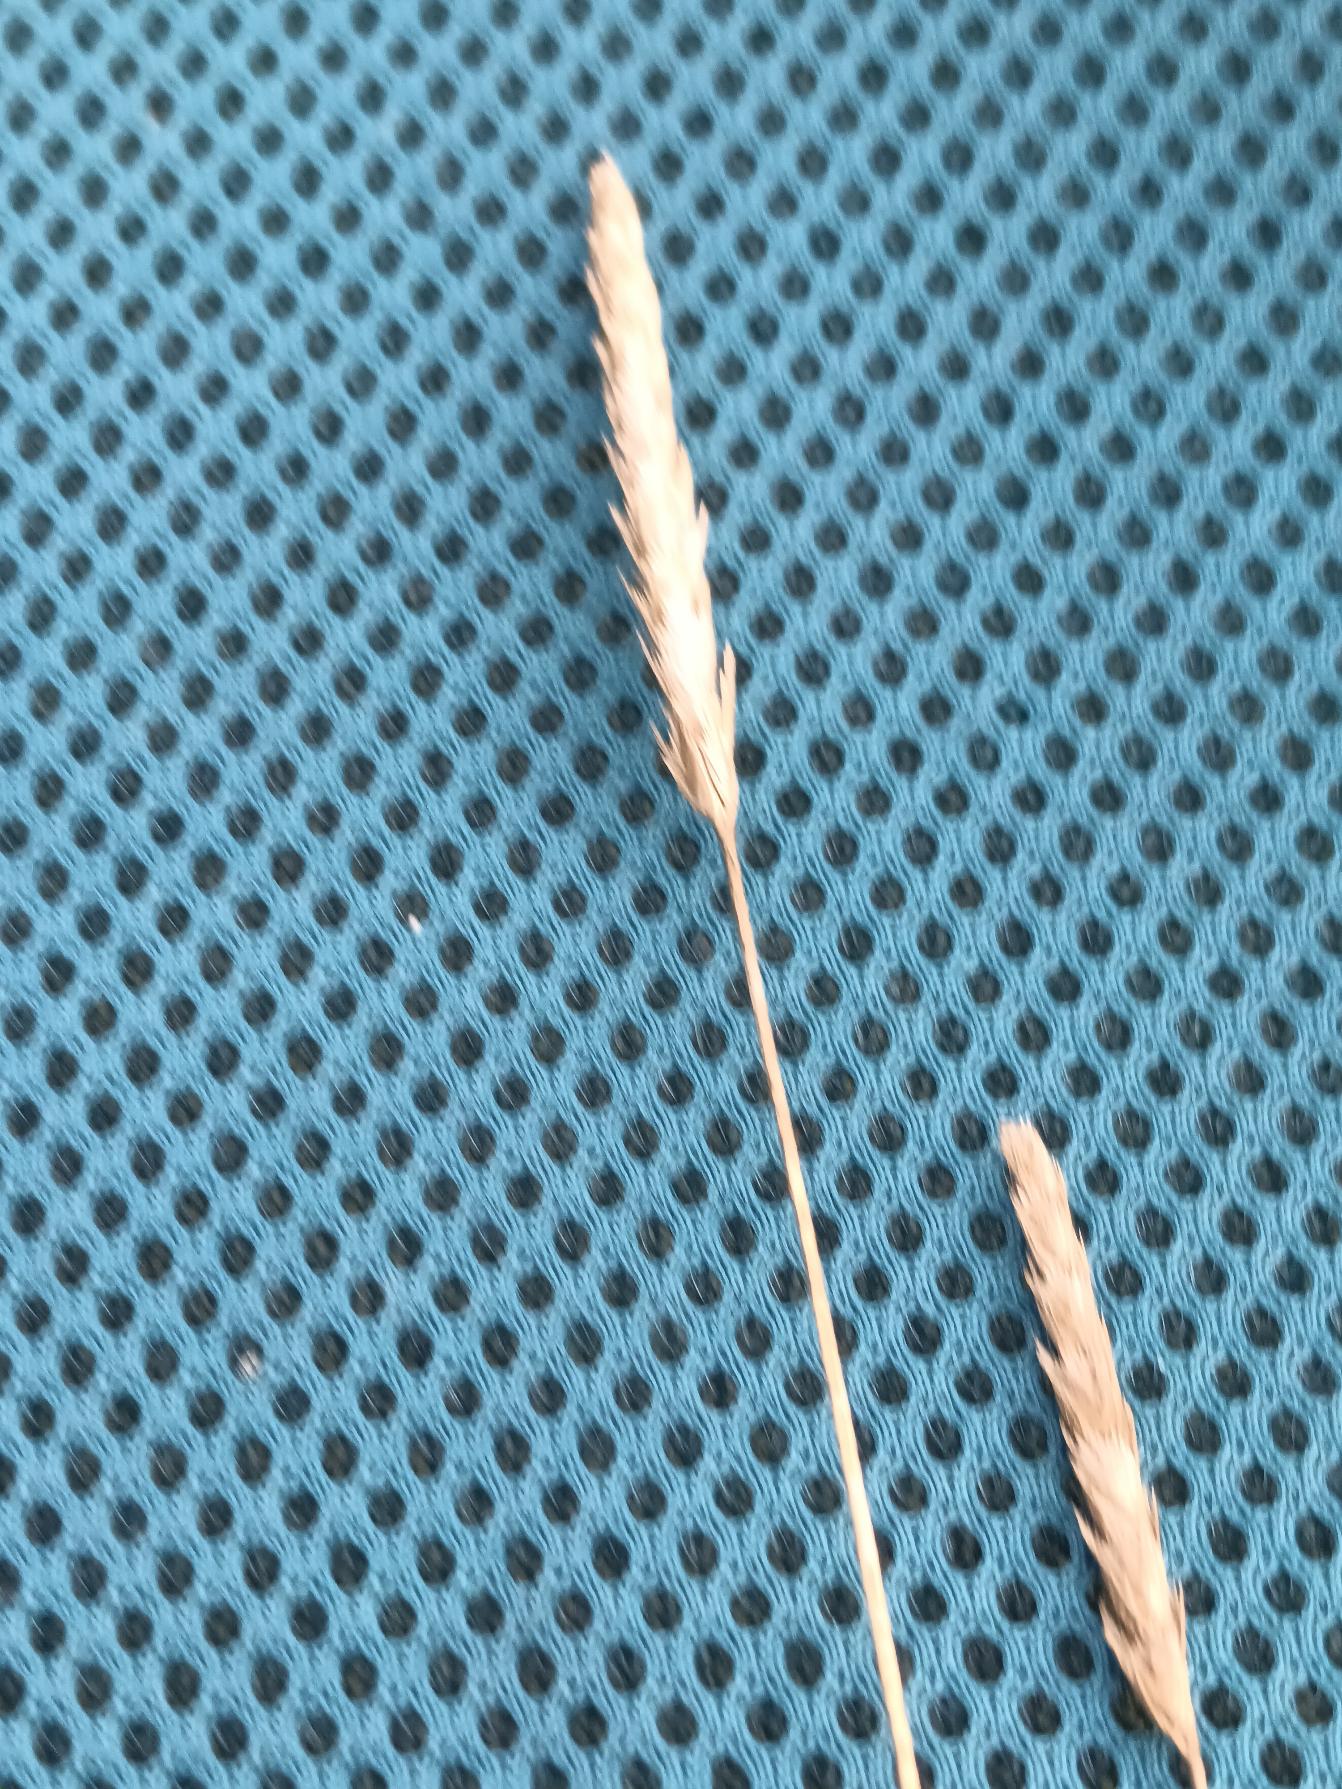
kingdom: Plantae
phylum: Tracheophyta
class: Liliopsida
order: Poales
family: Poaceae
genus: Cynosurus
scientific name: Cynosurus cristatus
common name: Kamgræs
